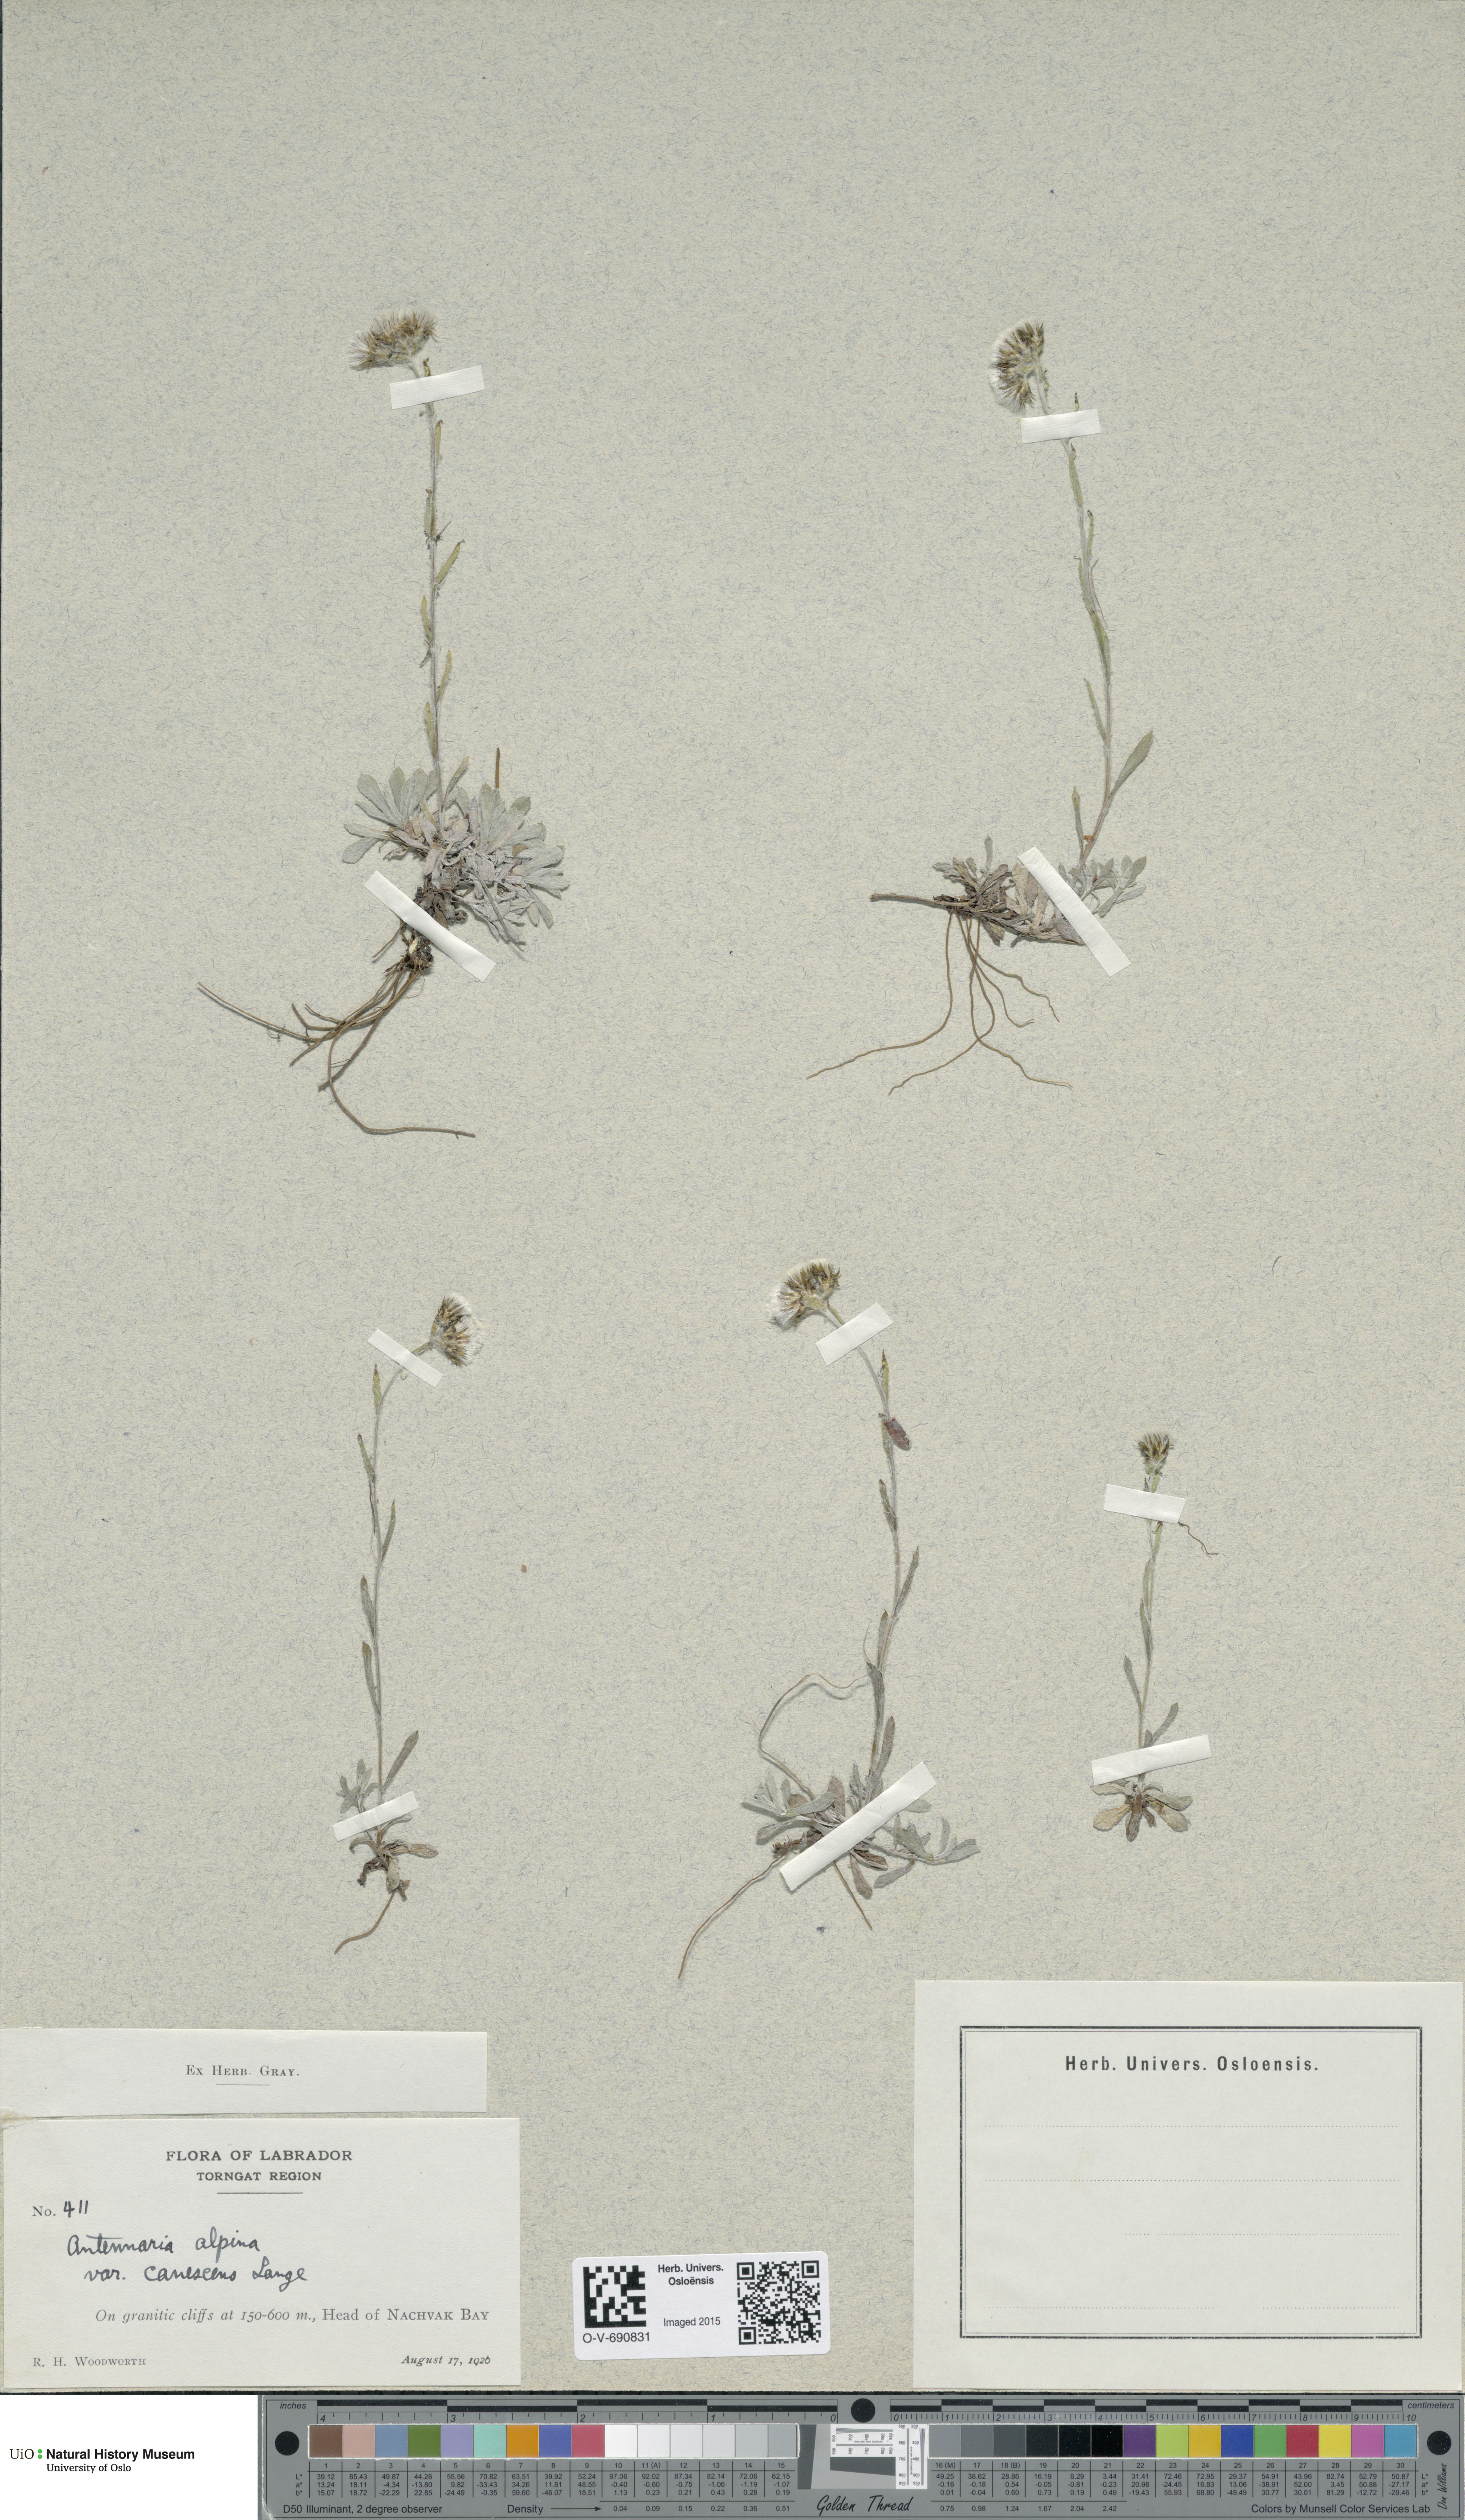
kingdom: Plantae
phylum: Tracheophyta
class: Magnoliopsida
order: Asterales
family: Asteraceae
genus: Antennaria
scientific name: Antennaria canescens
